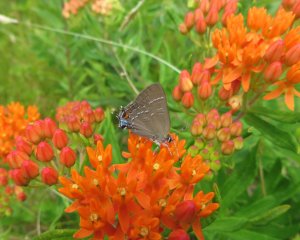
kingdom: Animalia
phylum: Arthropoda
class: Insecta
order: Lepidoptera
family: Lycaenidae
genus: Satyrium
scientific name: Satyrium calanus
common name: Banded Hairstreak
